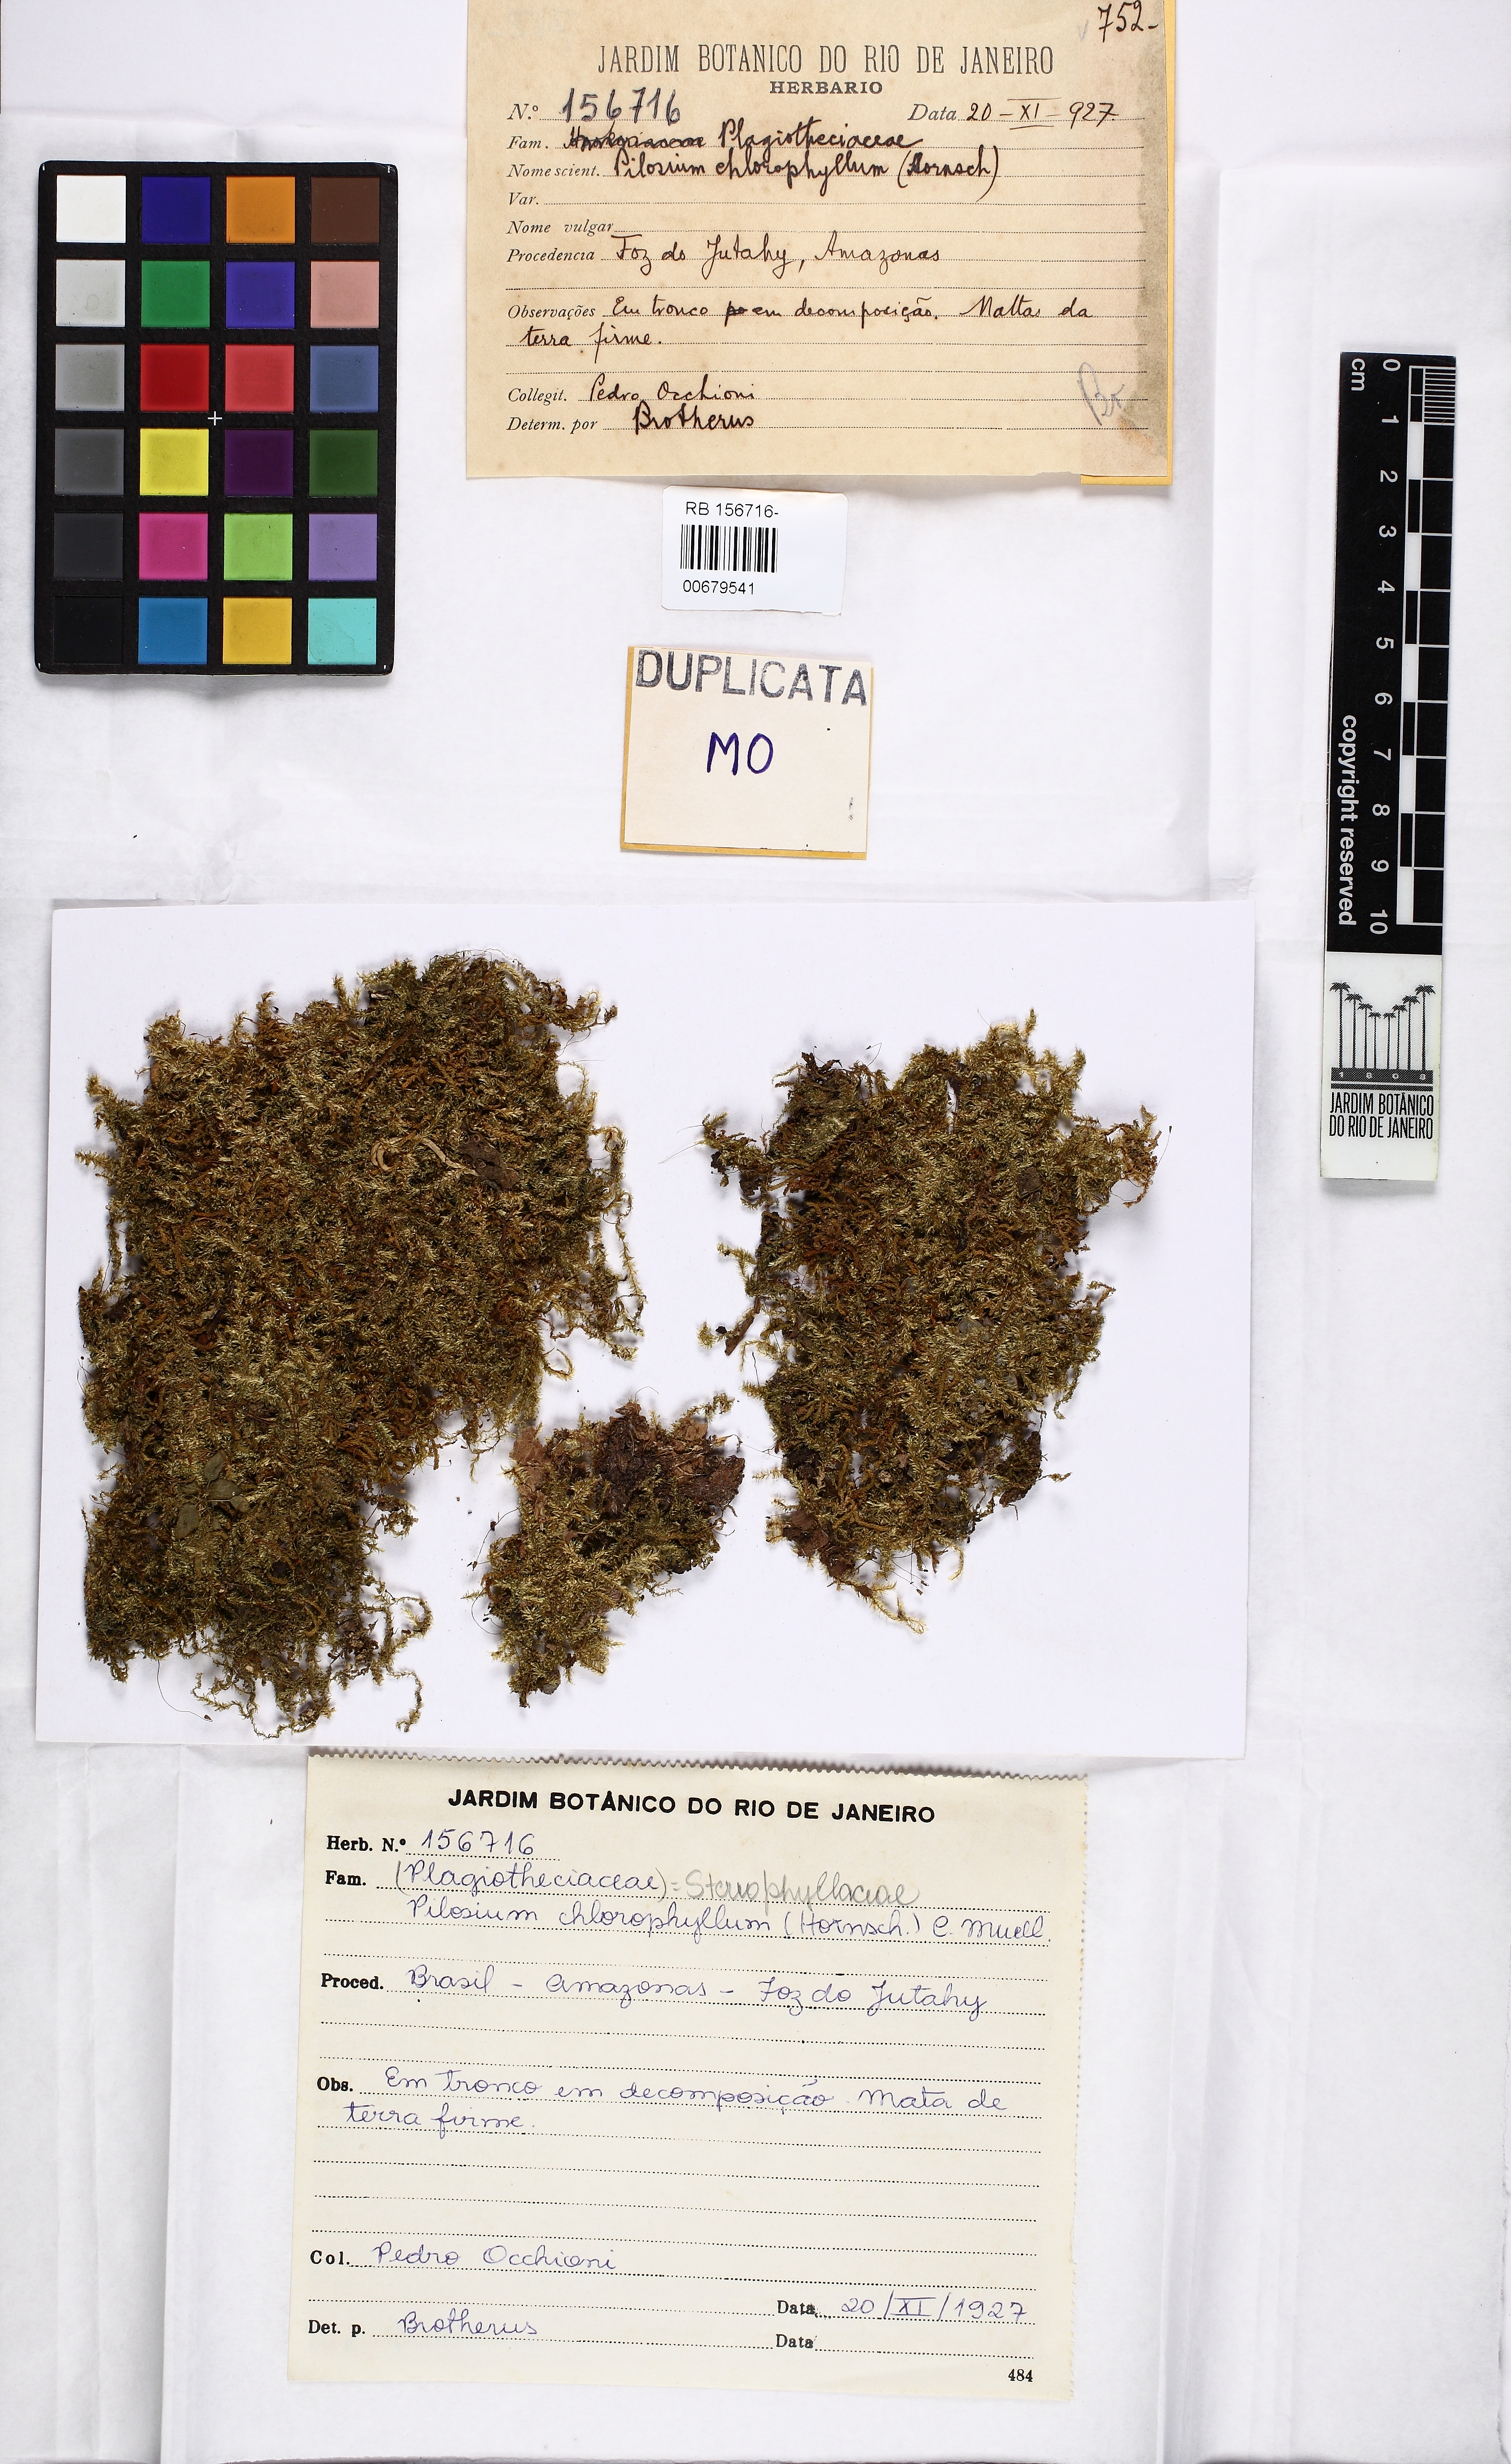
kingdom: Plantae
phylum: Bryophyta
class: Bryopsida
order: Hypnales
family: Stereophyllaceae
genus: Pilosium
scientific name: Pilosium chlorophyllum
